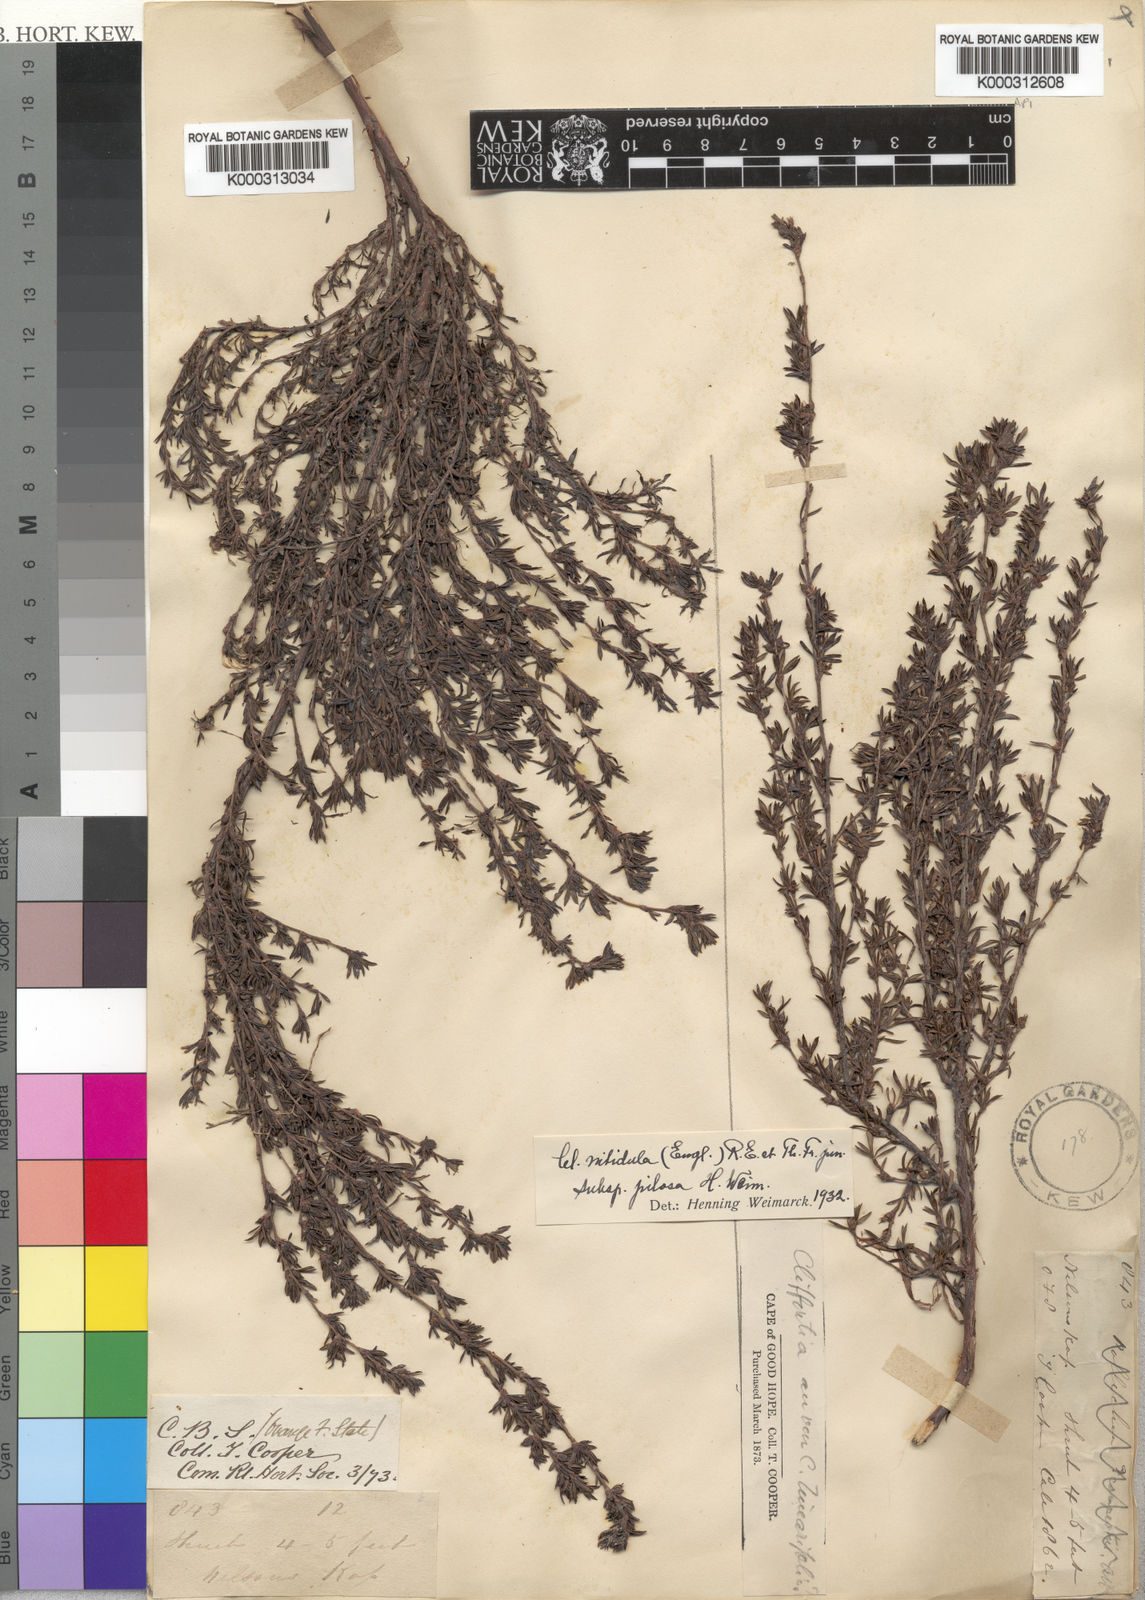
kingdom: Plantae
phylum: Tracheophyta
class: Magnoliopsida
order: Rosales
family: Rosaceae
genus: Cliffortia
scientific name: Cliffortia nitidula
